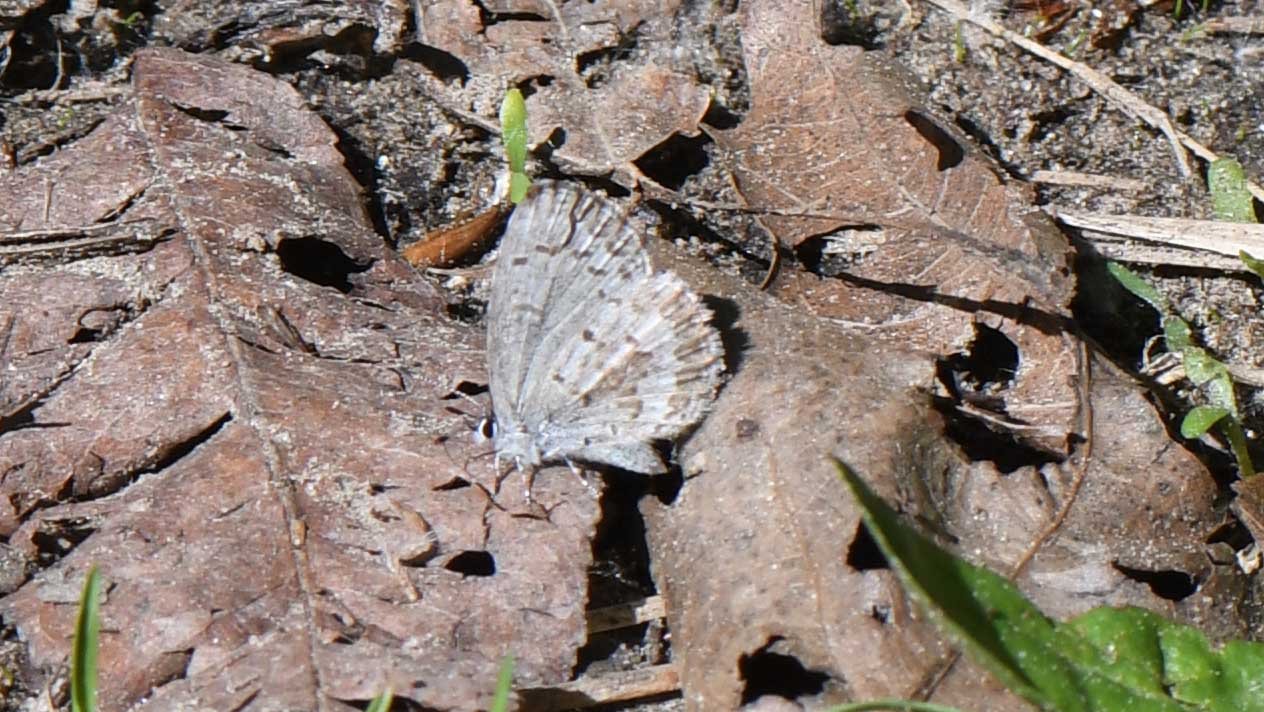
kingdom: Animalia
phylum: Arthropoda
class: Insecta
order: Lepidoptera
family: Lycaenidae
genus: Celastrina
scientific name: Celastrina
